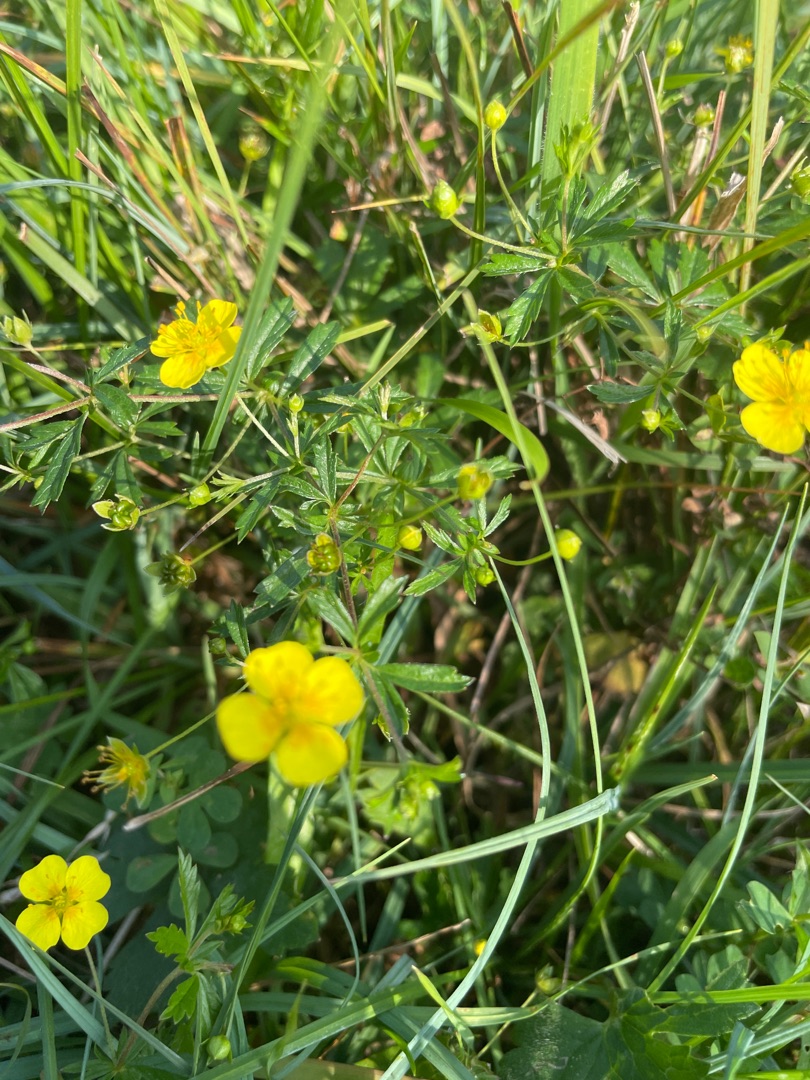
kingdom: Plantae
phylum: Tracheophyta
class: Magnoliopsida
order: Rosales
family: Rosaceae
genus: Potentilla
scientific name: Potentilla erecta
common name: Tormentil
